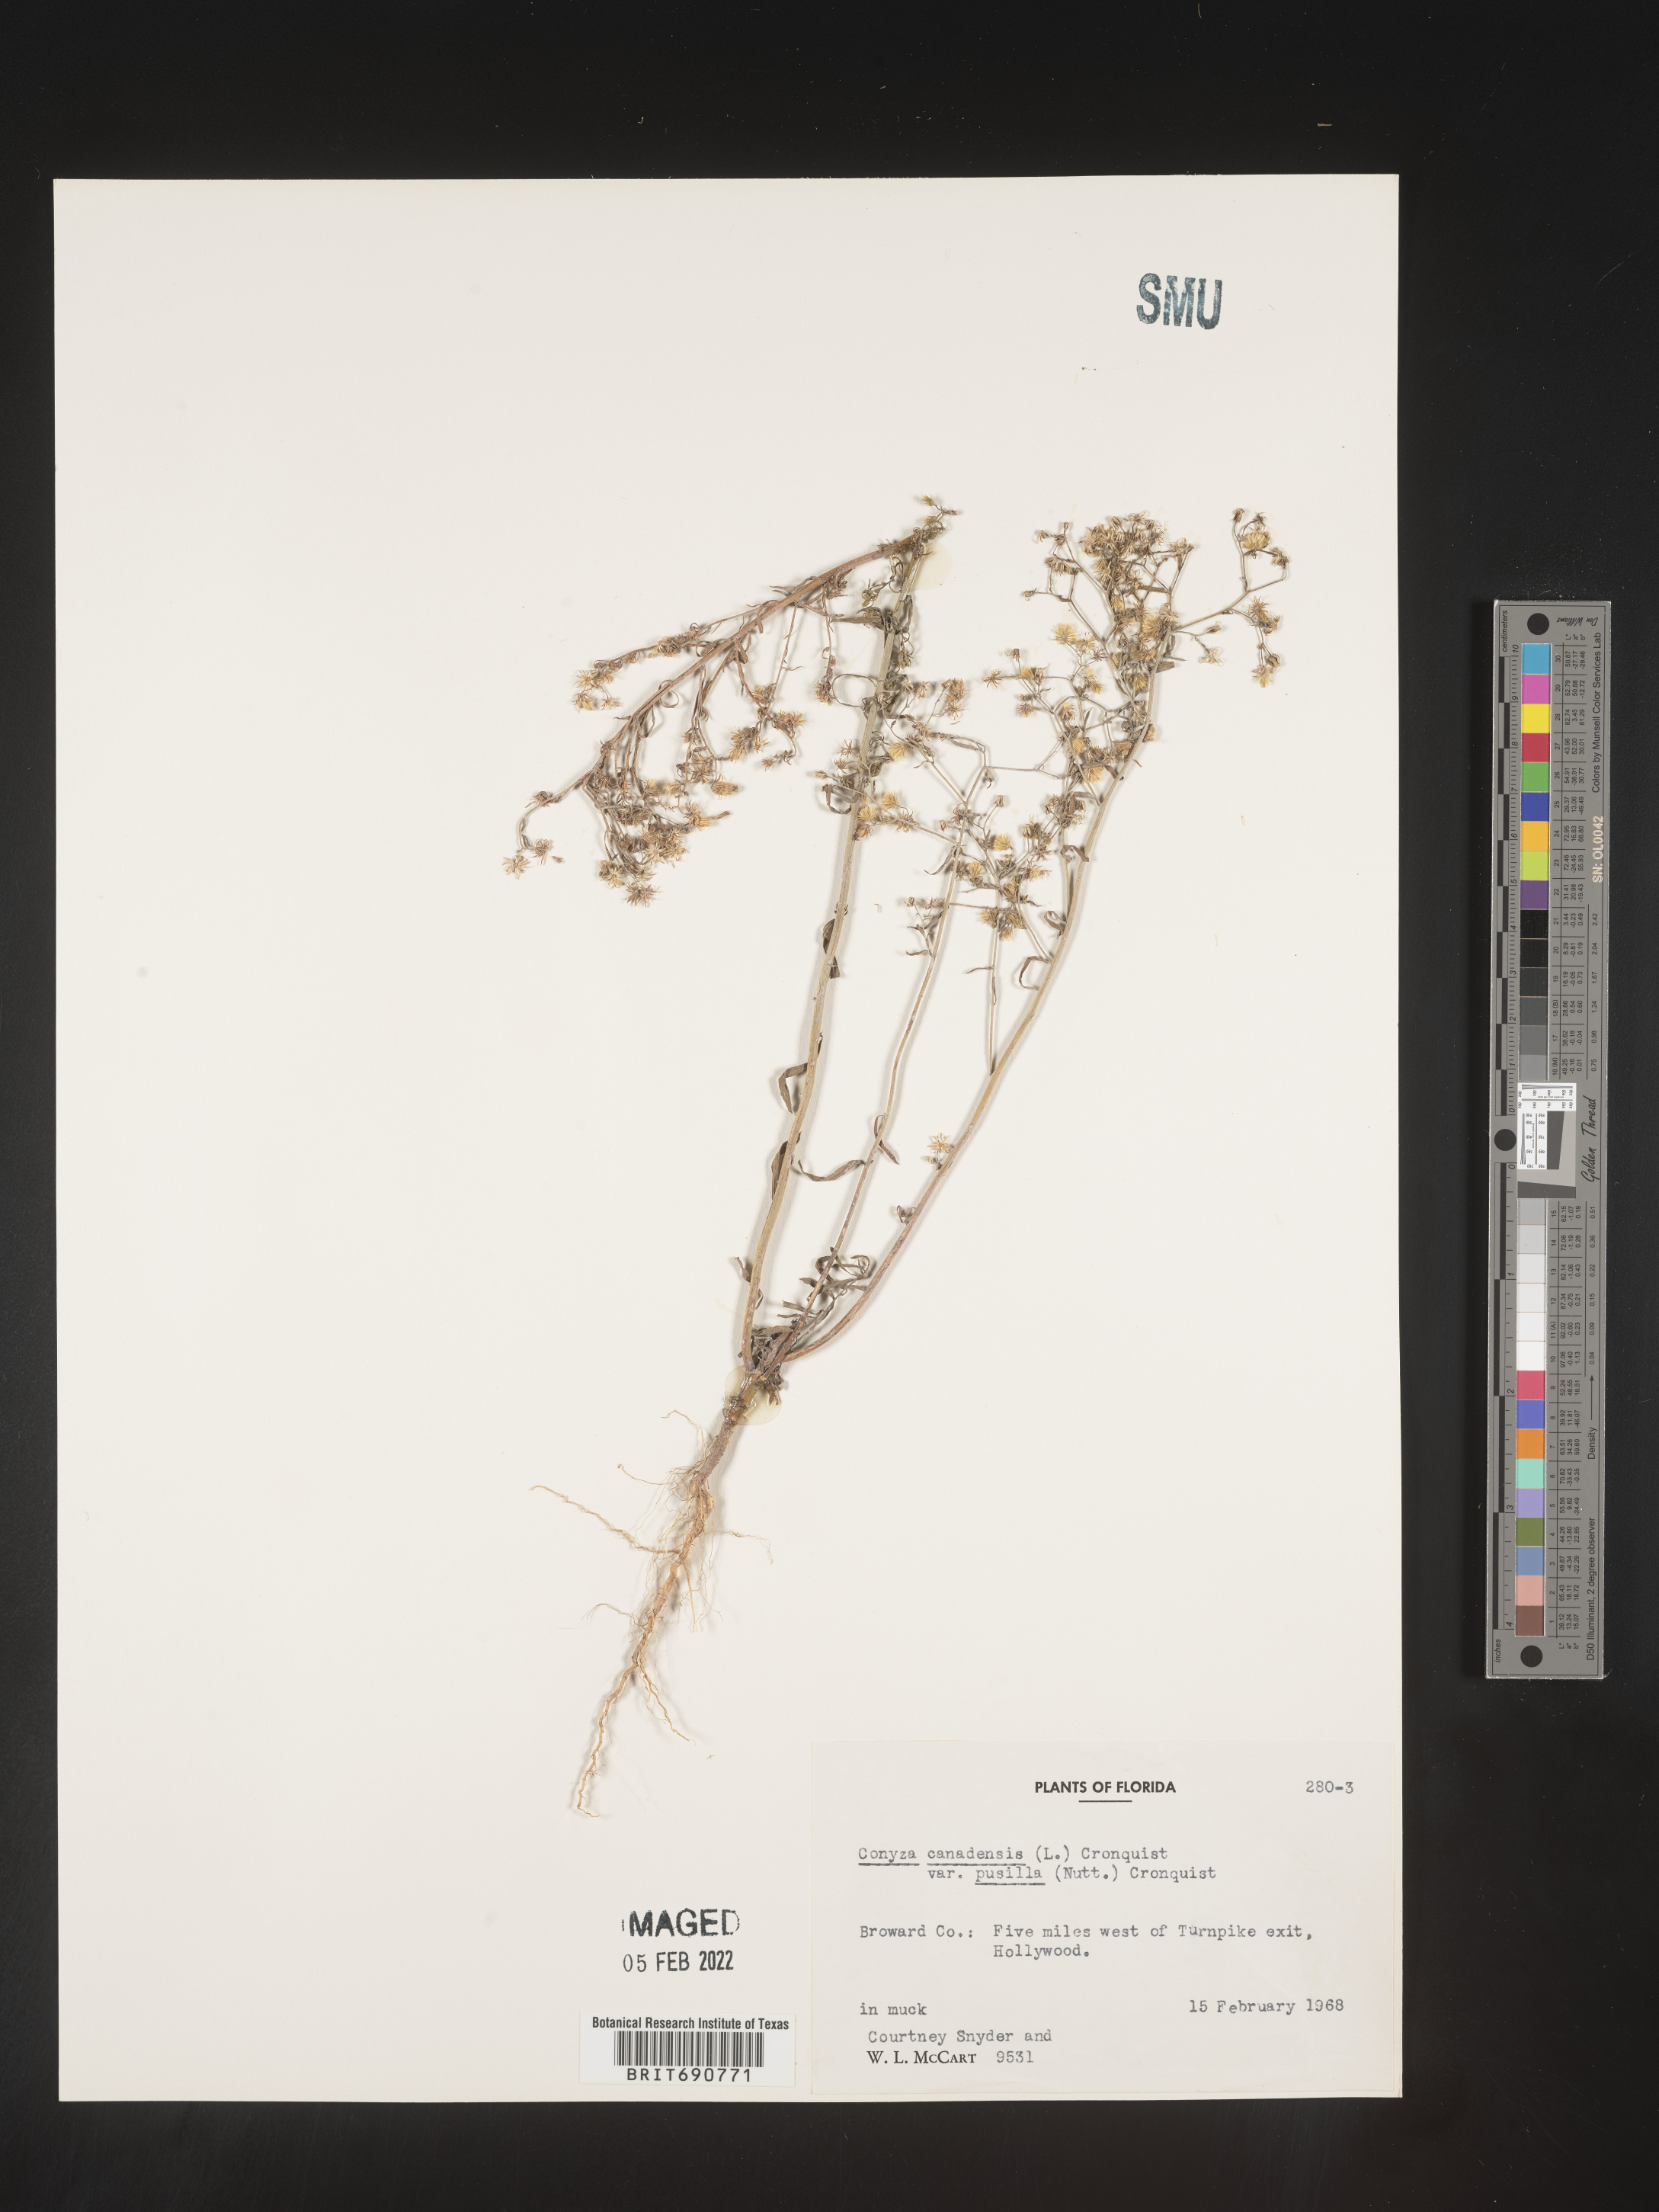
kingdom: Plantae
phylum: Tracheophyta
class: Magnoliopsida
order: Asterales
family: Asteraceae
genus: Erigeron
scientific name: Erigeron canadensis
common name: Canadian fleabane
